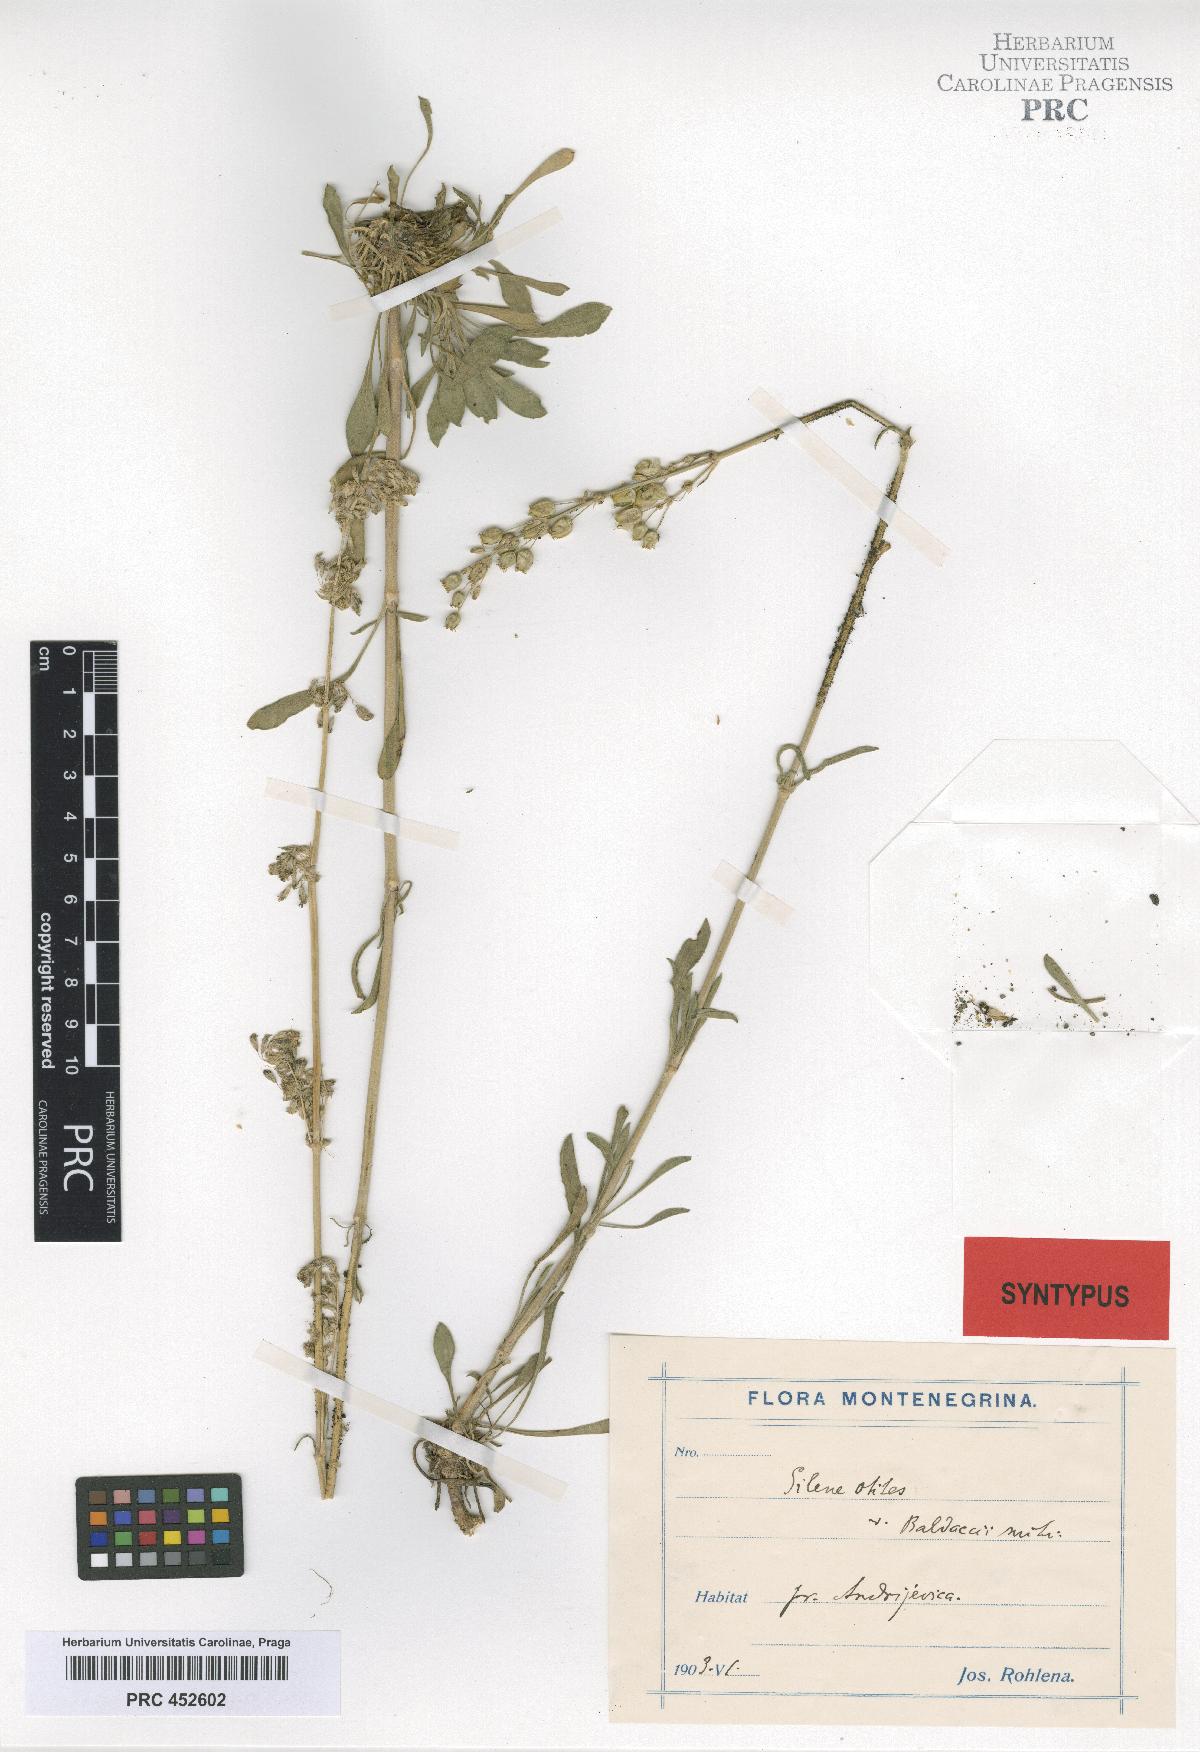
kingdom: Plantae
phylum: Tracheophyta
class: Magnoliopsida
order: Caryophyllales
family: Caryophyllaceae
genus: Silene
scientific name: Silene otites
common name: Spanish catchfly
